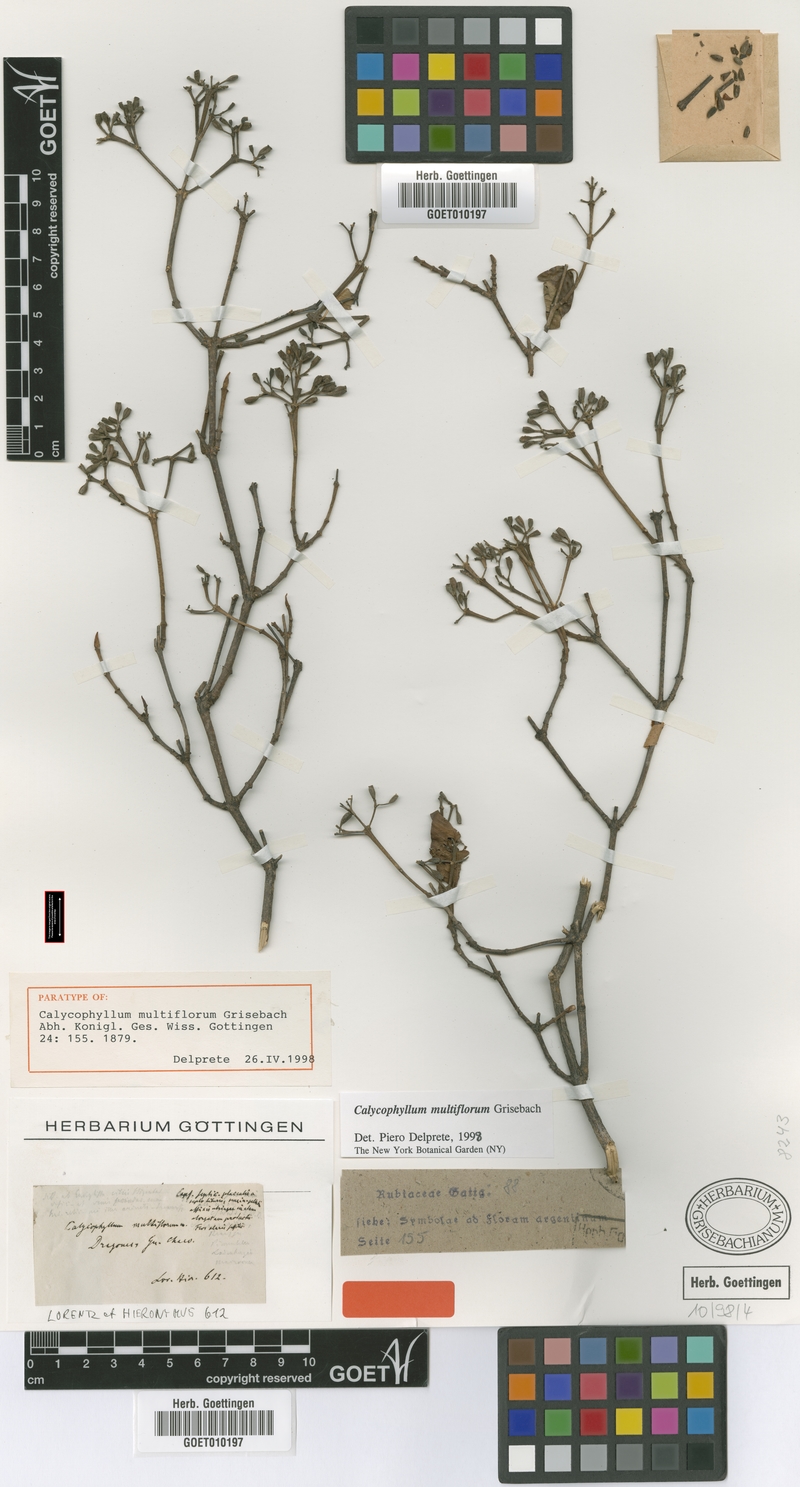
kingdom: Plantae
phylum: Tracheophyta
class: Magnoliopsida
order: Gentianales
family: Rubiaceae
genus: Calycophyllum
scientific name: Calycophyllum multiflorum
